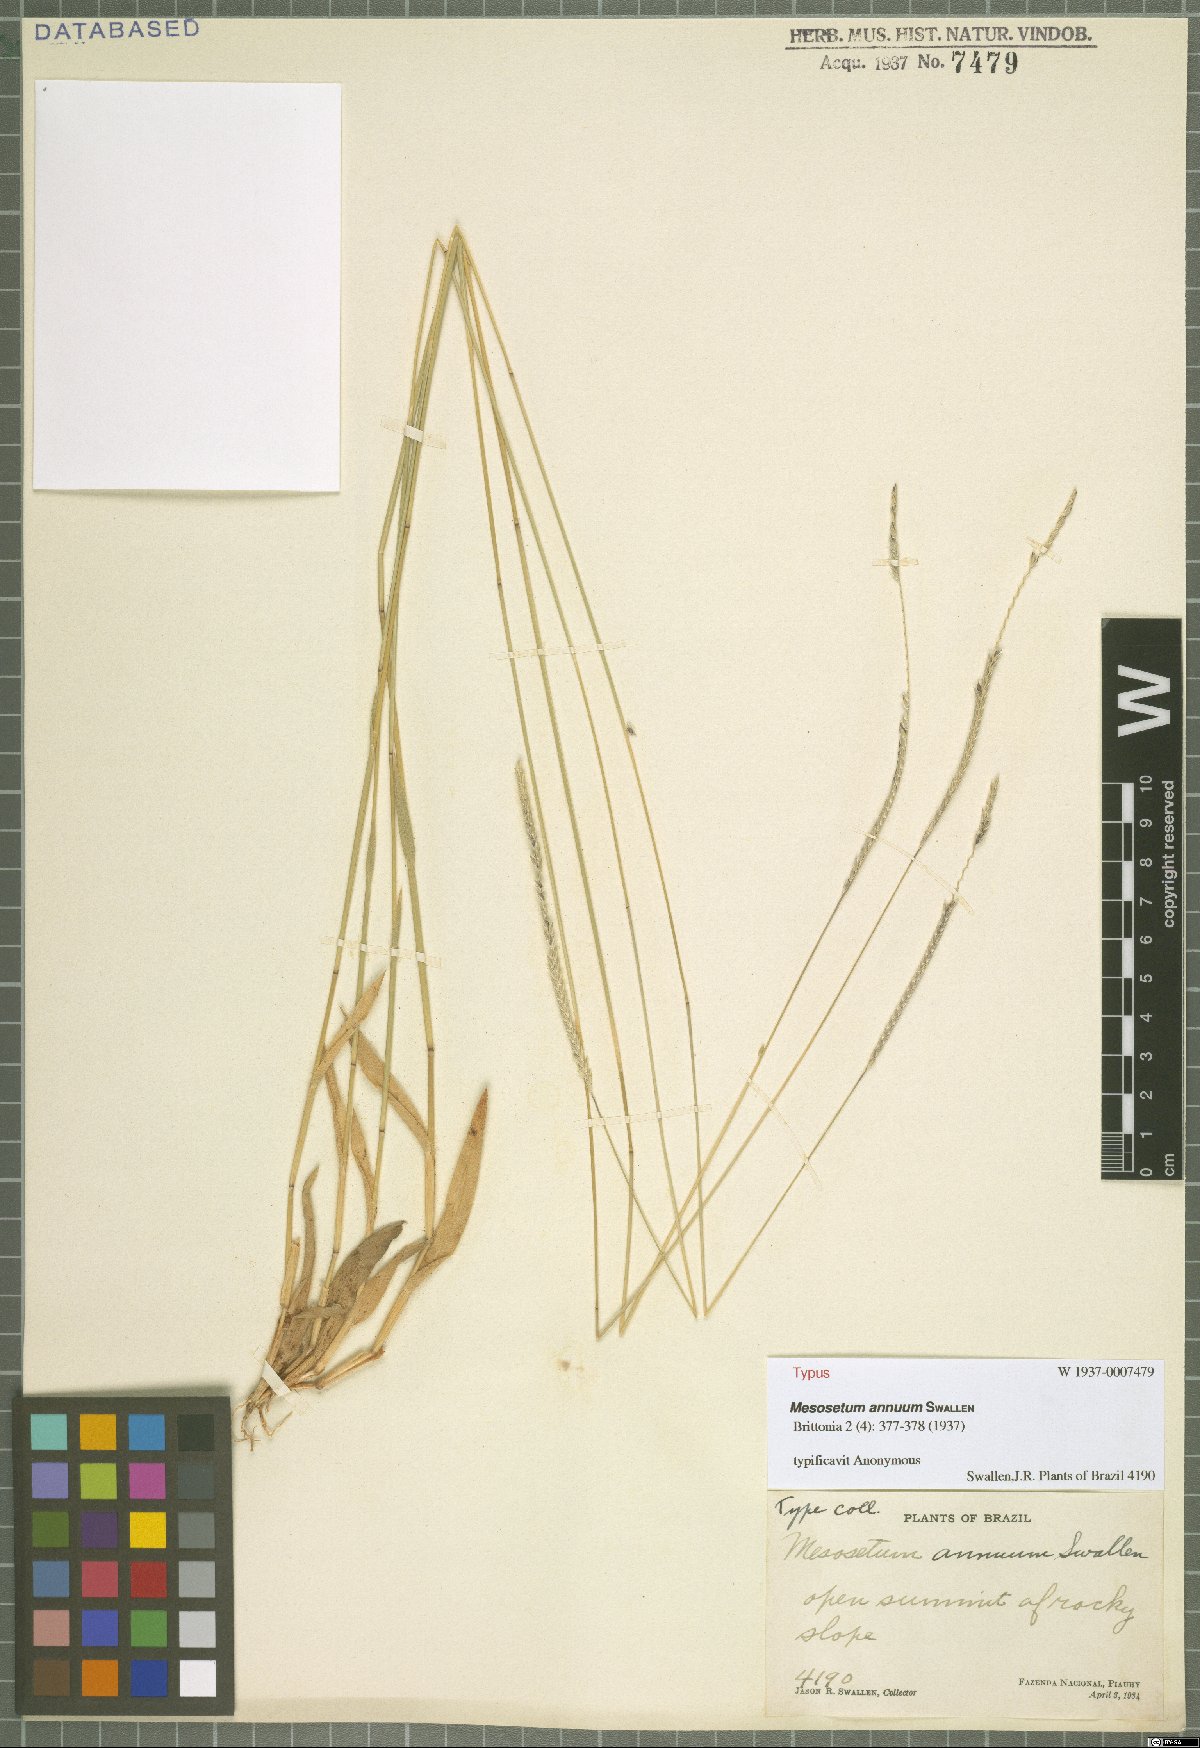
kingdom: Plantae
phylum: Tracheophyta
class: Liliopsida
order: Poales
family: Poaceae
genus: Mesosetum
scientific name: Mesosetum annuum
